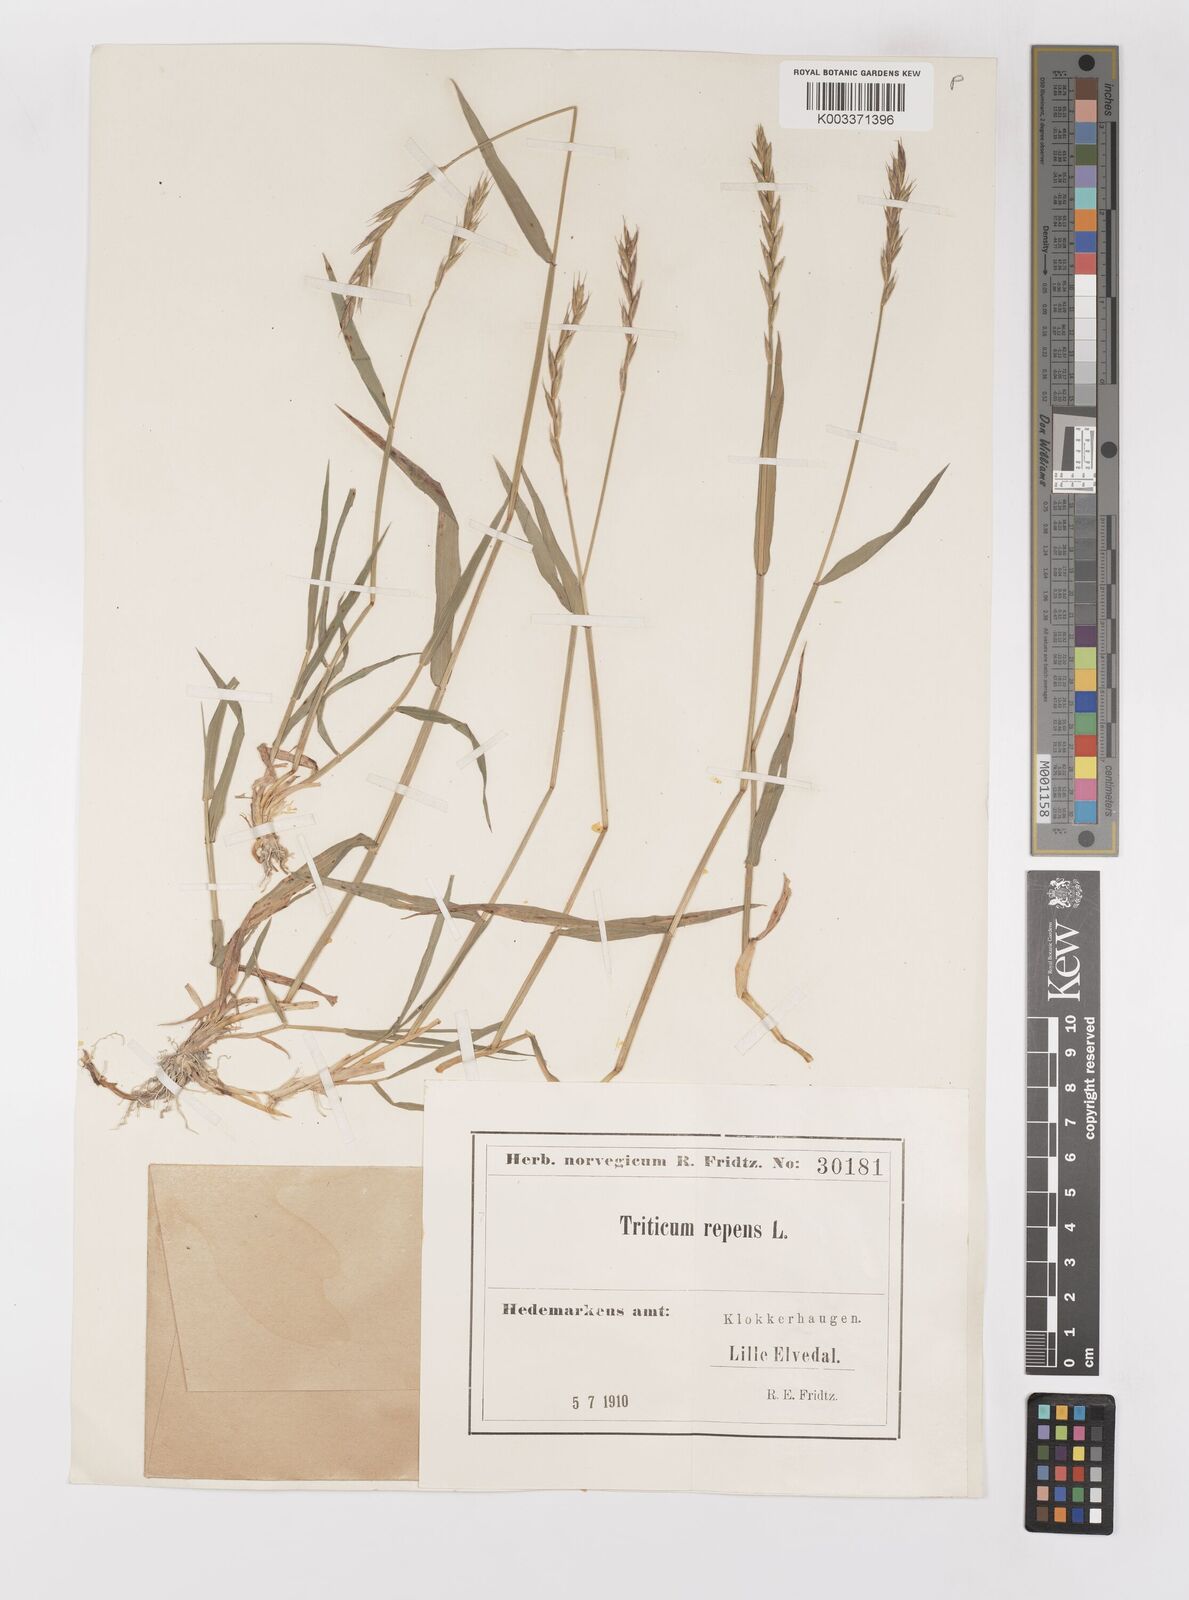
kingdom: Plantae
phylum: Tracheophyta
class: Liliopsida
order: Poales
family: Poaceae
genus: Elymus
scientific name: Elymus repens
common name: Quackgrass
